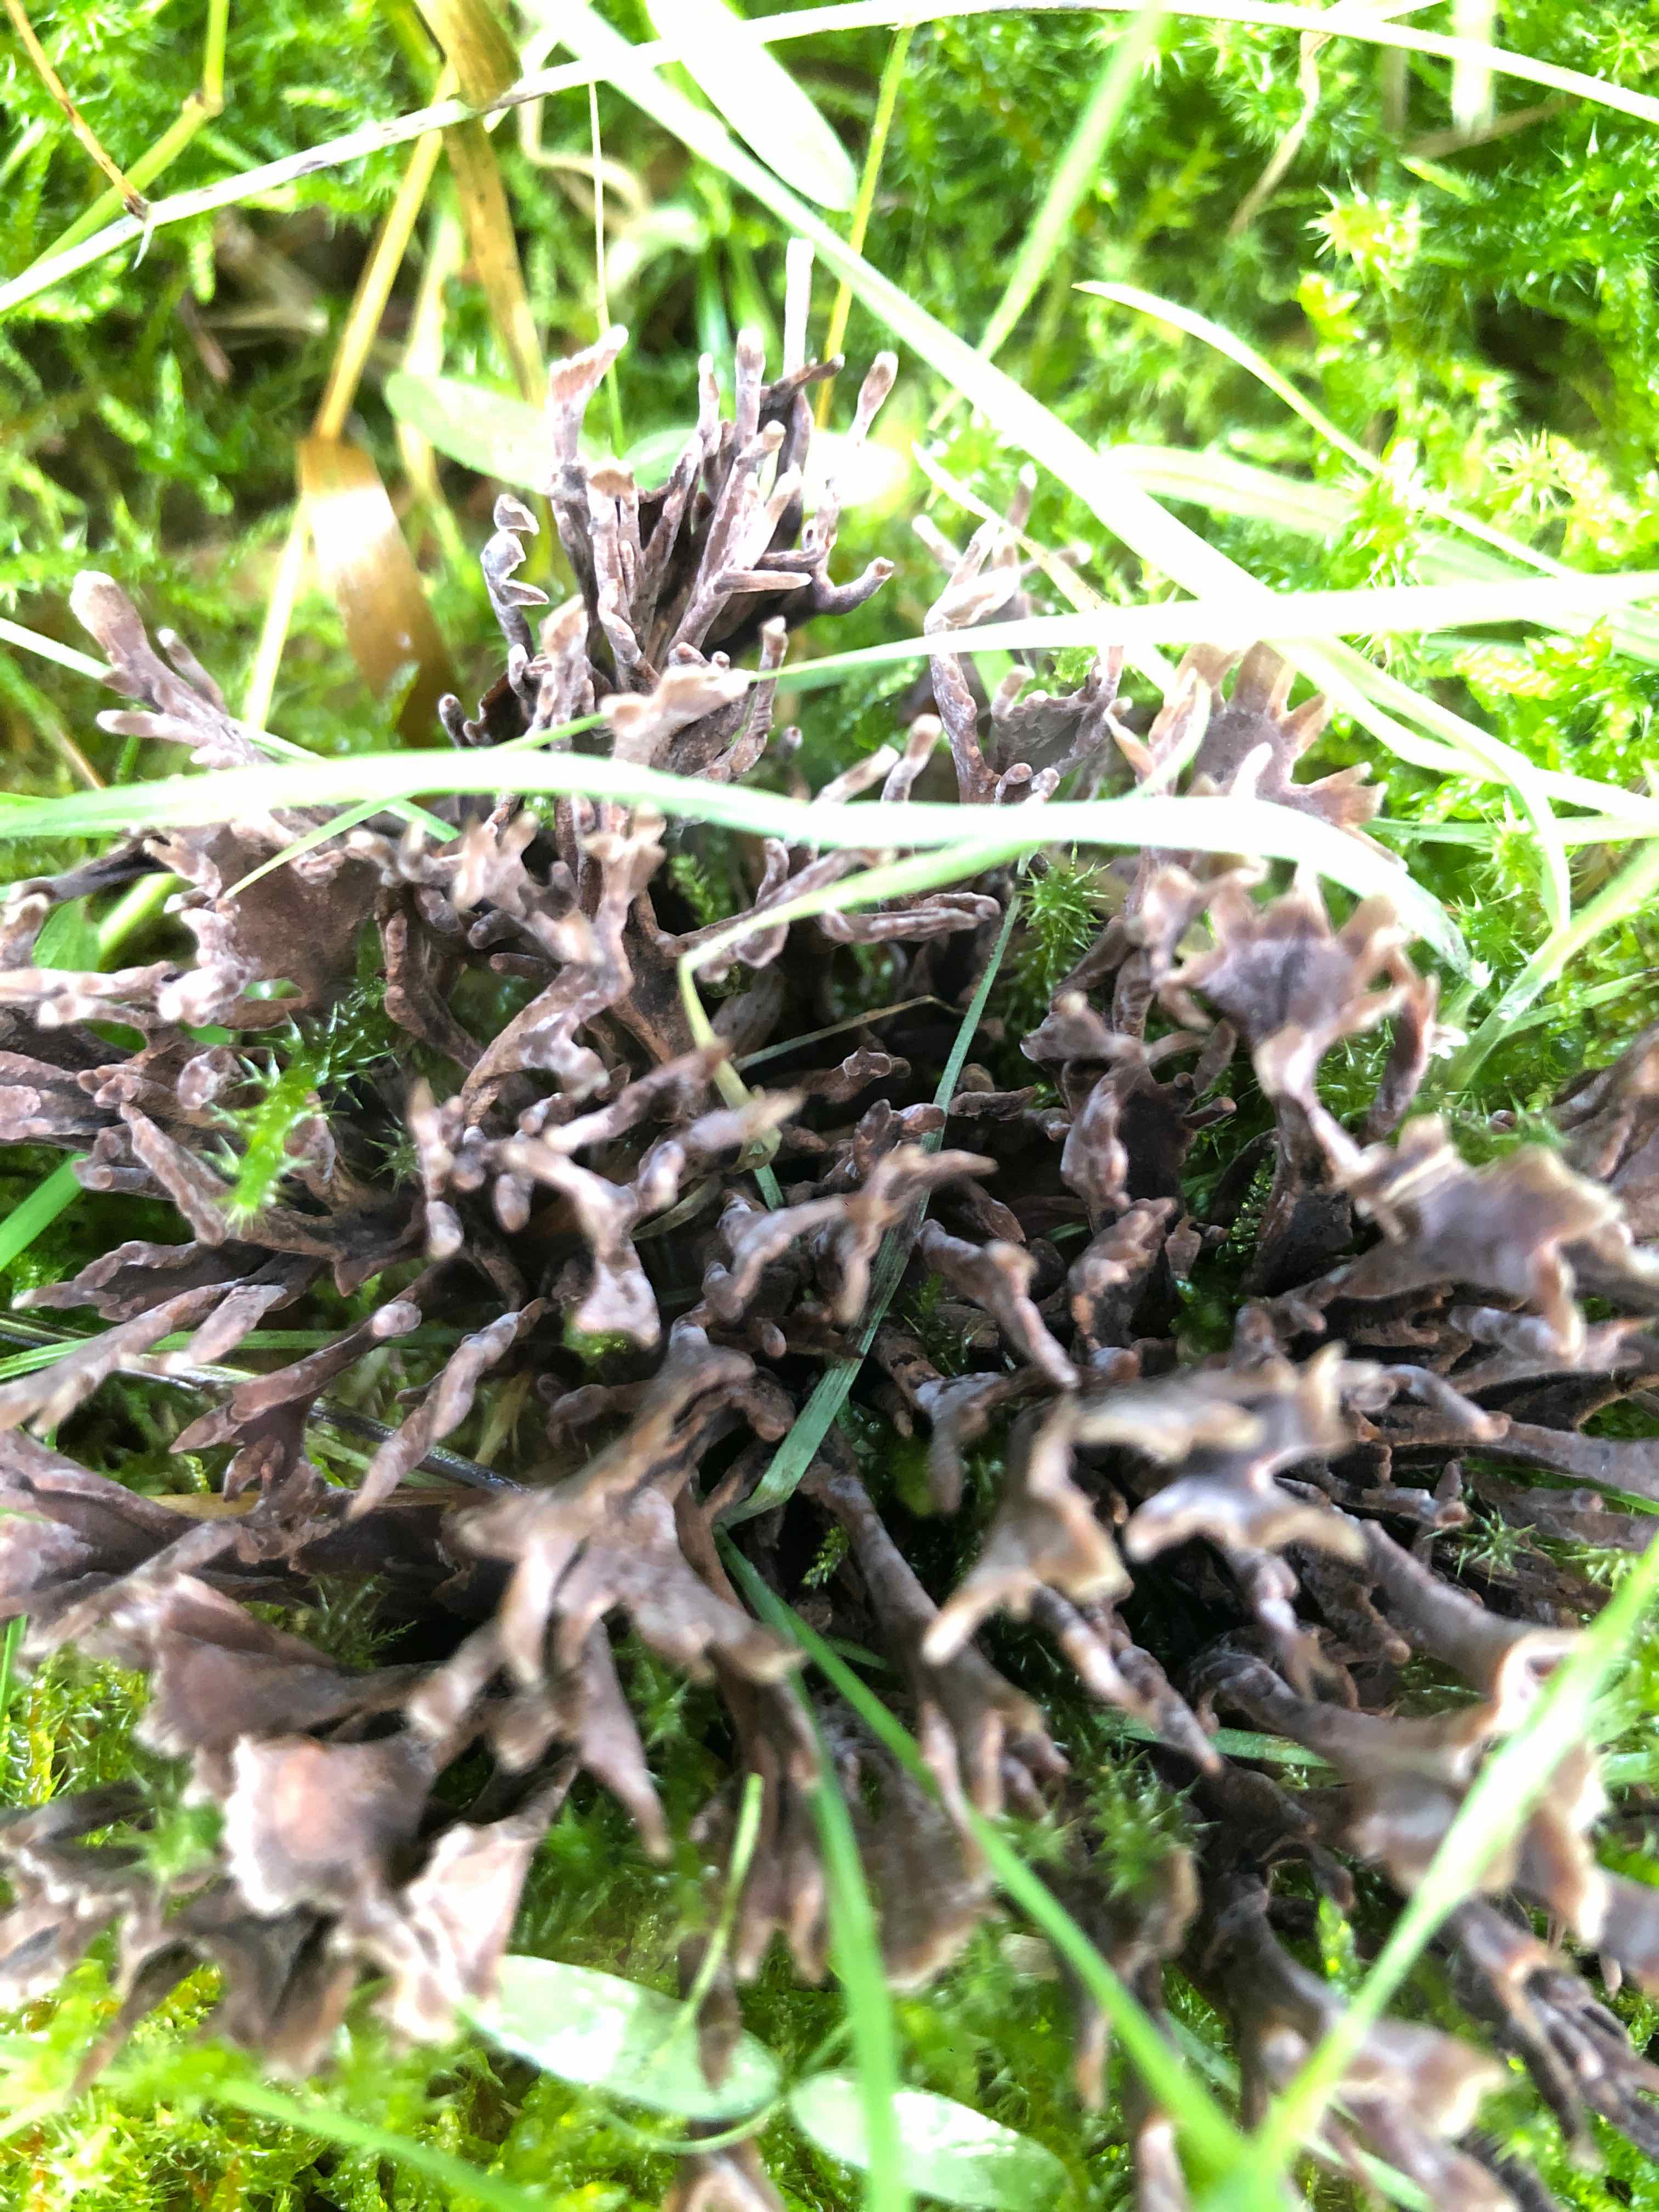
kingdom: Fungi
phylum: Basidiomycota
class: Agaricomycetes
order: Thelephorales
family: Thelephoraceae
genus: Thelephora
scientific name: Thelephora palmata
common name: grenet frynsesvamp
